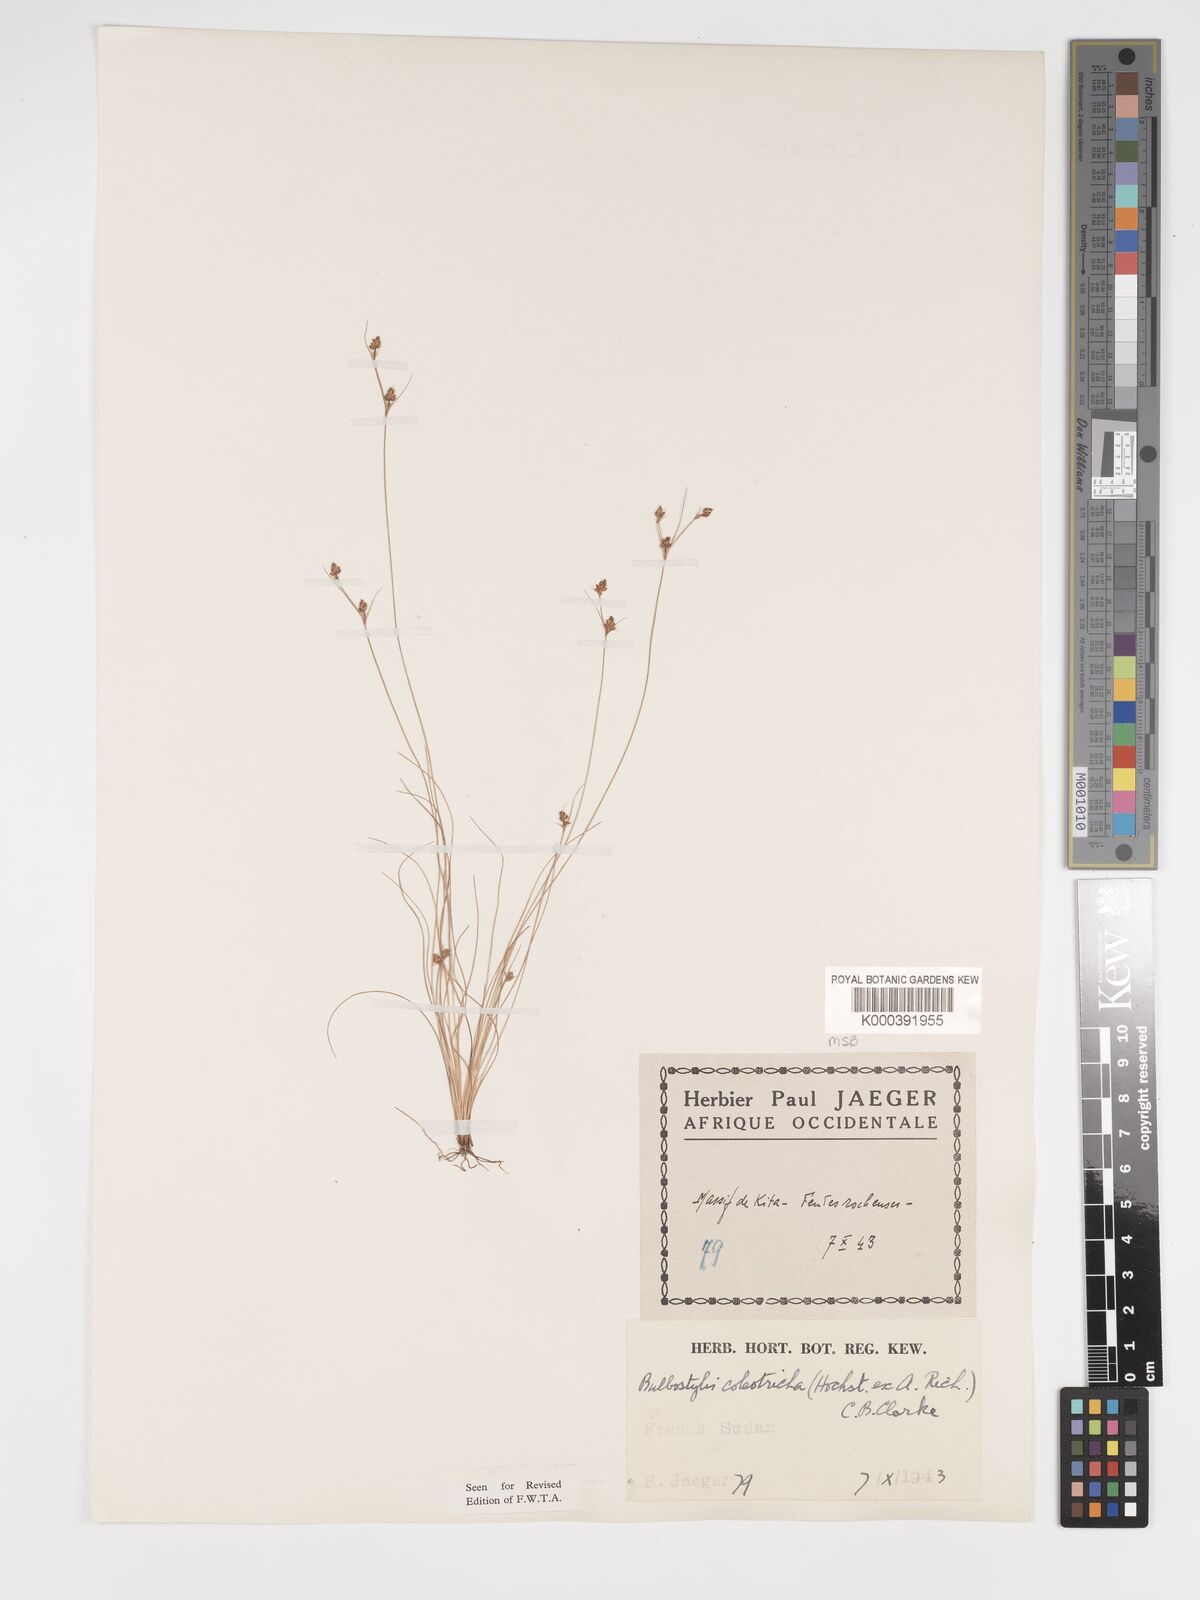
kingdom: Plantae
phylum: Tracheophyta
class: Liliopsida
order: Poales
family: Cyperaceae
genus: Bulbostylis
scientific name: Bulbostylis coleotricha
